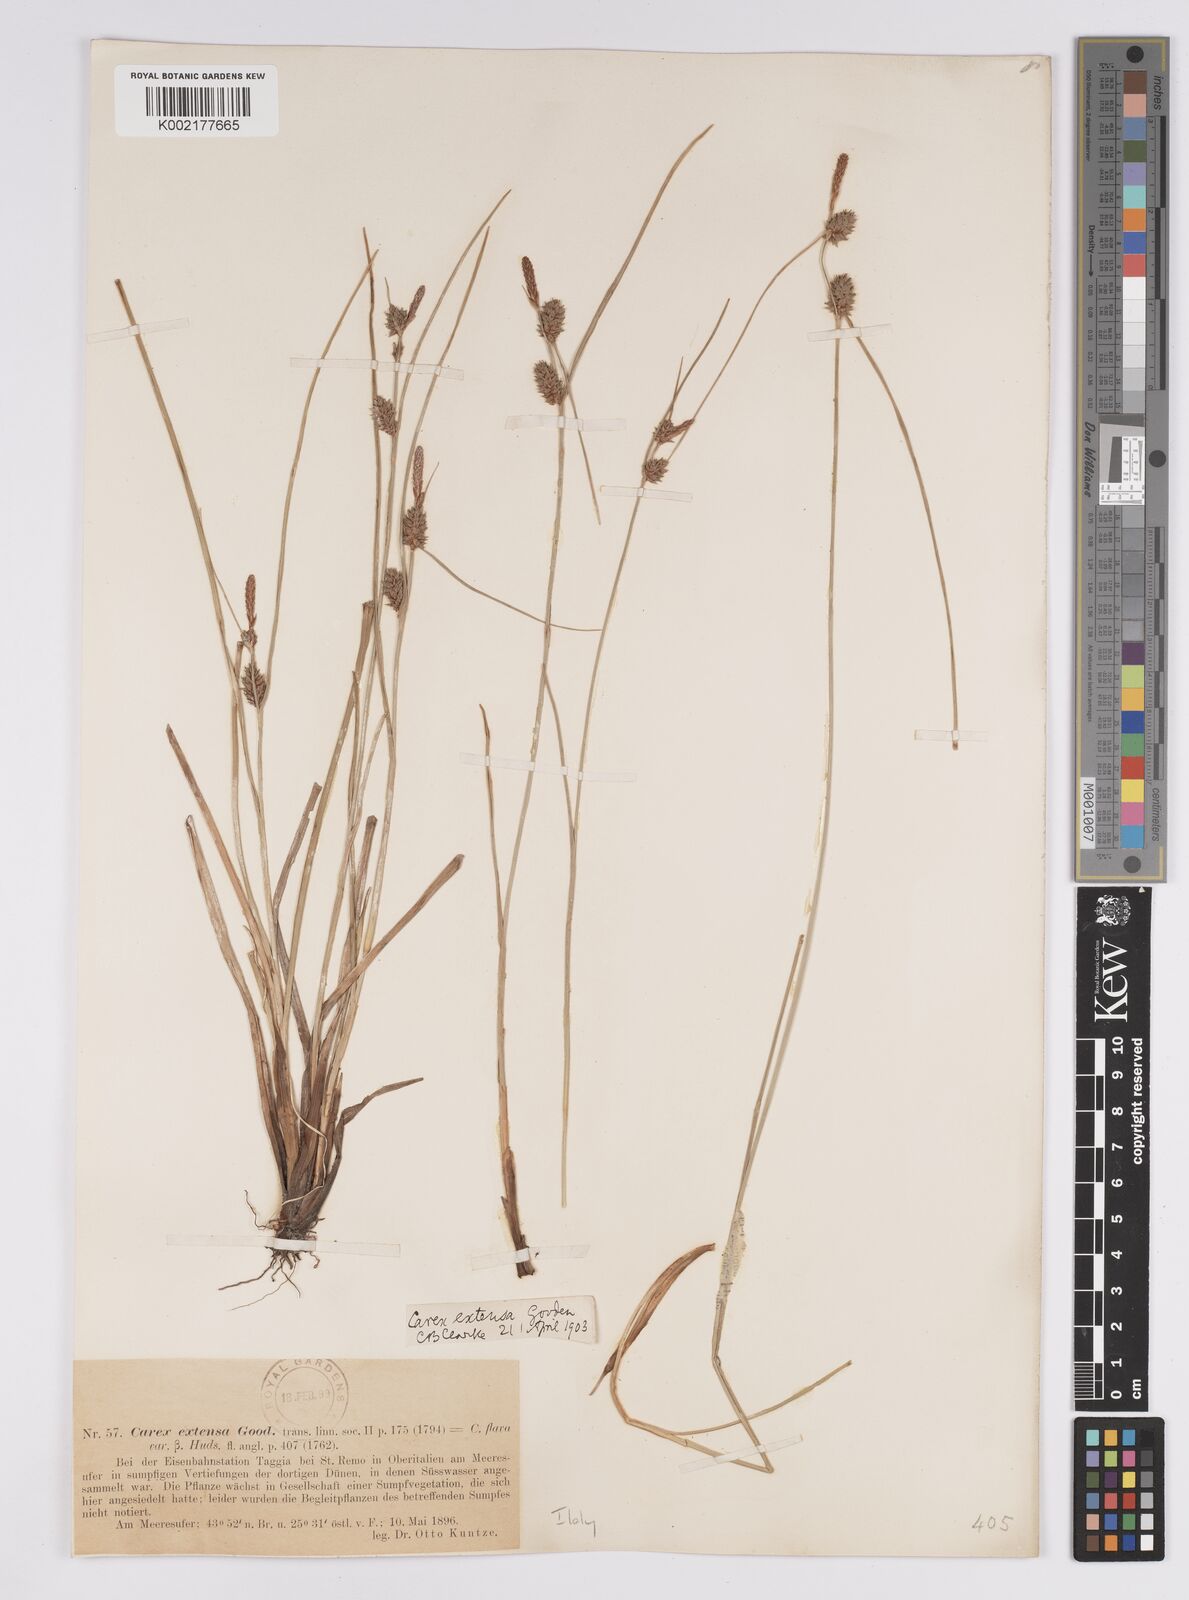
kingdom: Plantae
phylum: Tracheophyta
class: Liliopsida
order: Poales
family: Cyperaceae
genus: Carex
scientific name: Carex extensa
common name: Long-bracted sedge
